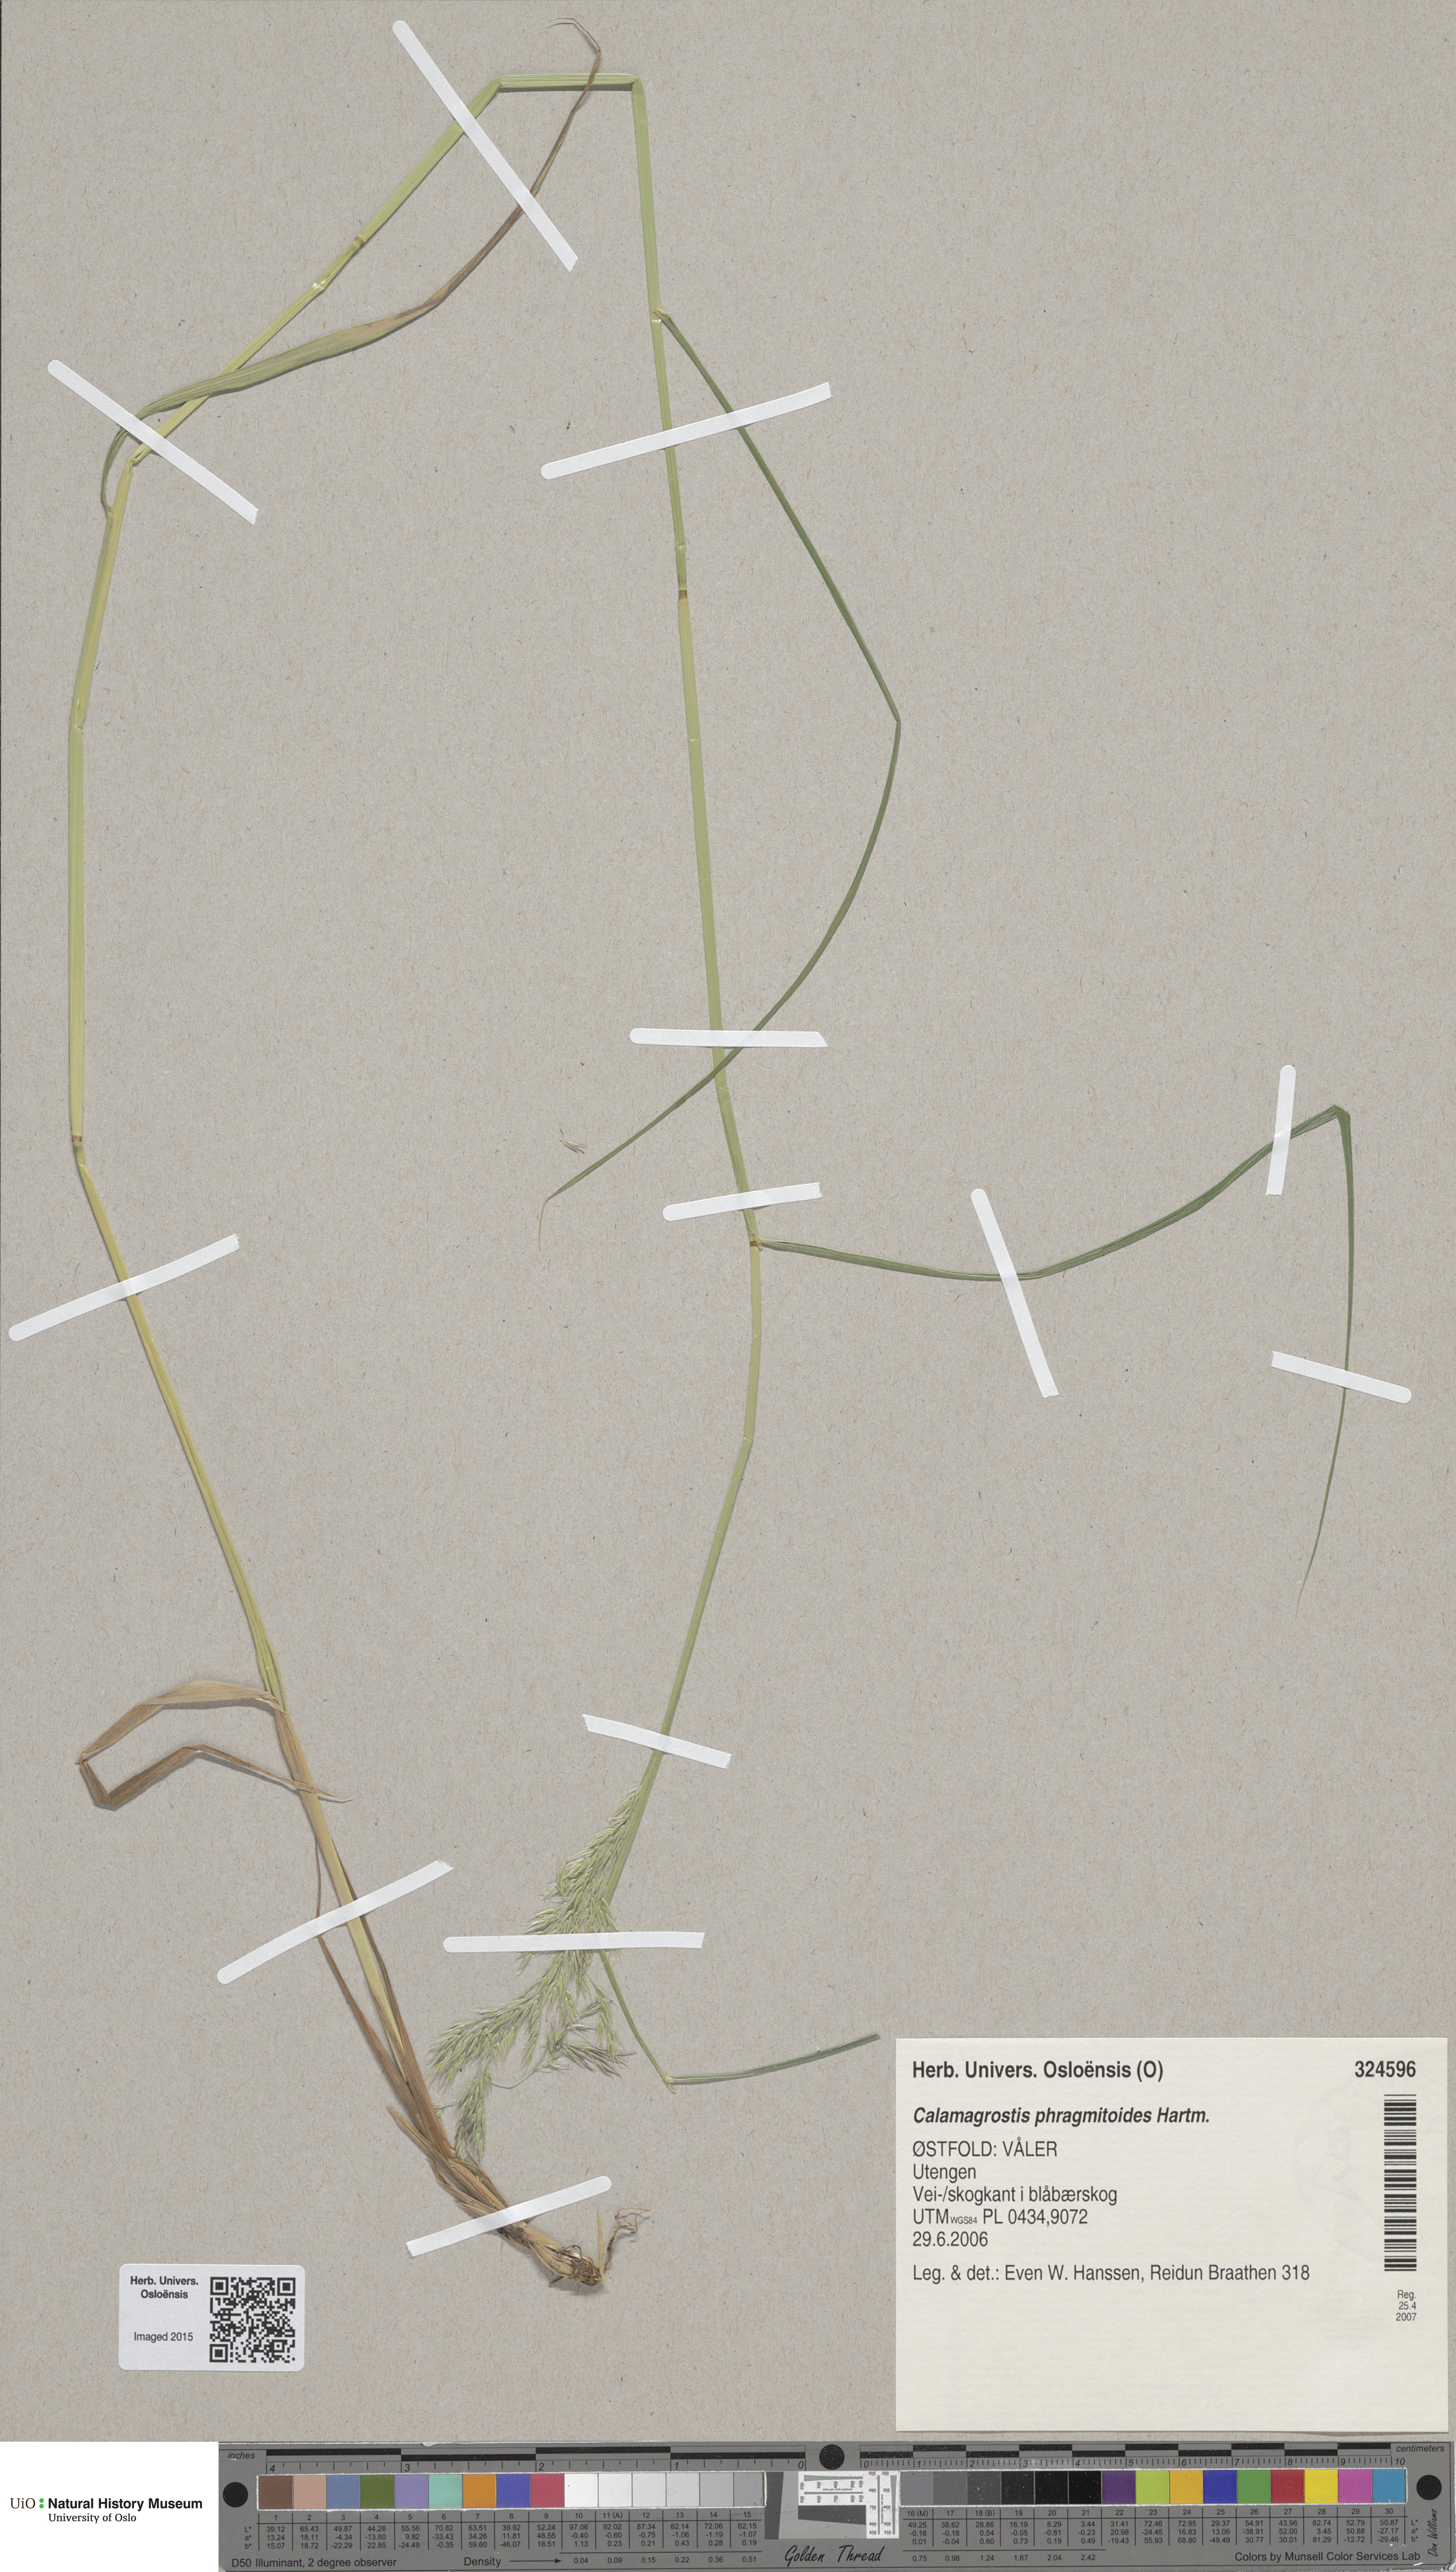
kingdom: Plantae
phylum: Tracheophyta
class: Liliopsida
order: Poales
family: Poaceae
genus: Calamagrostis
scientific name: Calamagrostis purpurea
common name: Scandinavian small-reed
